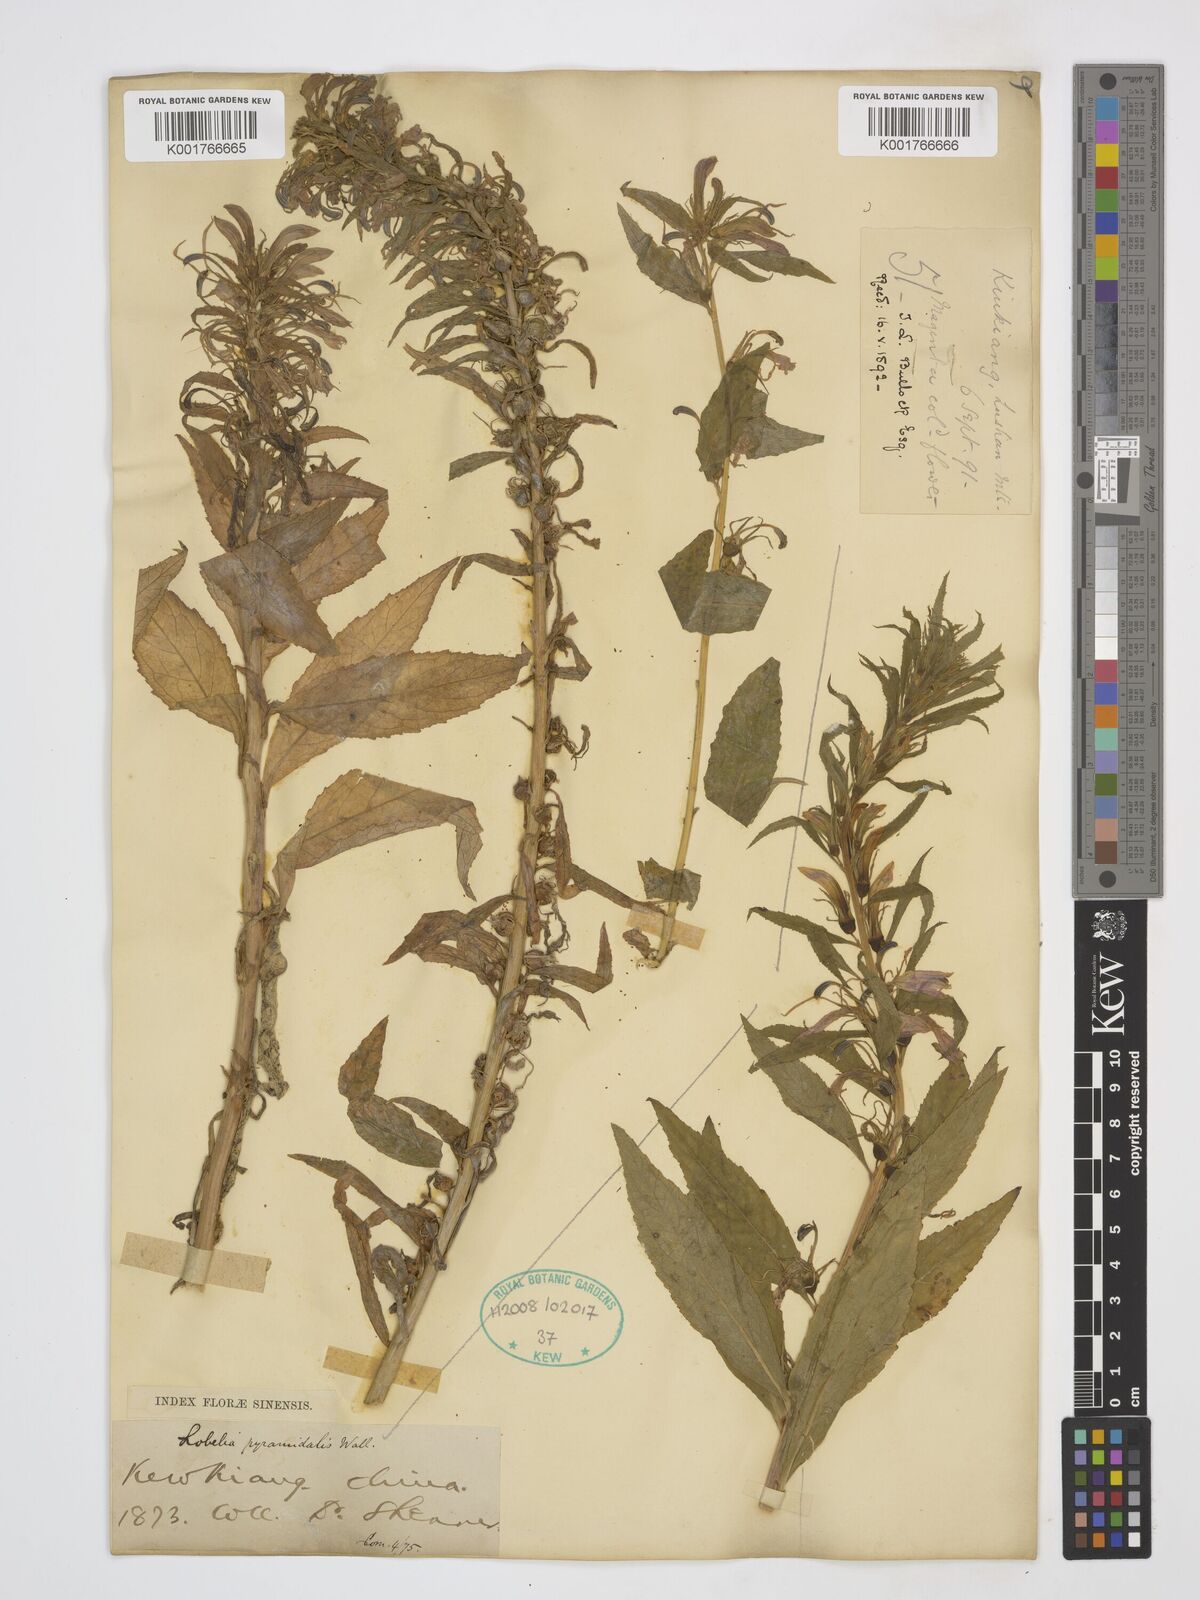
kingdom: Plantae
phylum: Tracheophyta
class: Magnoliopsida
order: Asterales
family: Campanulaceae
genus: Lobelia
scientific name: Lobelia pyramidalis
